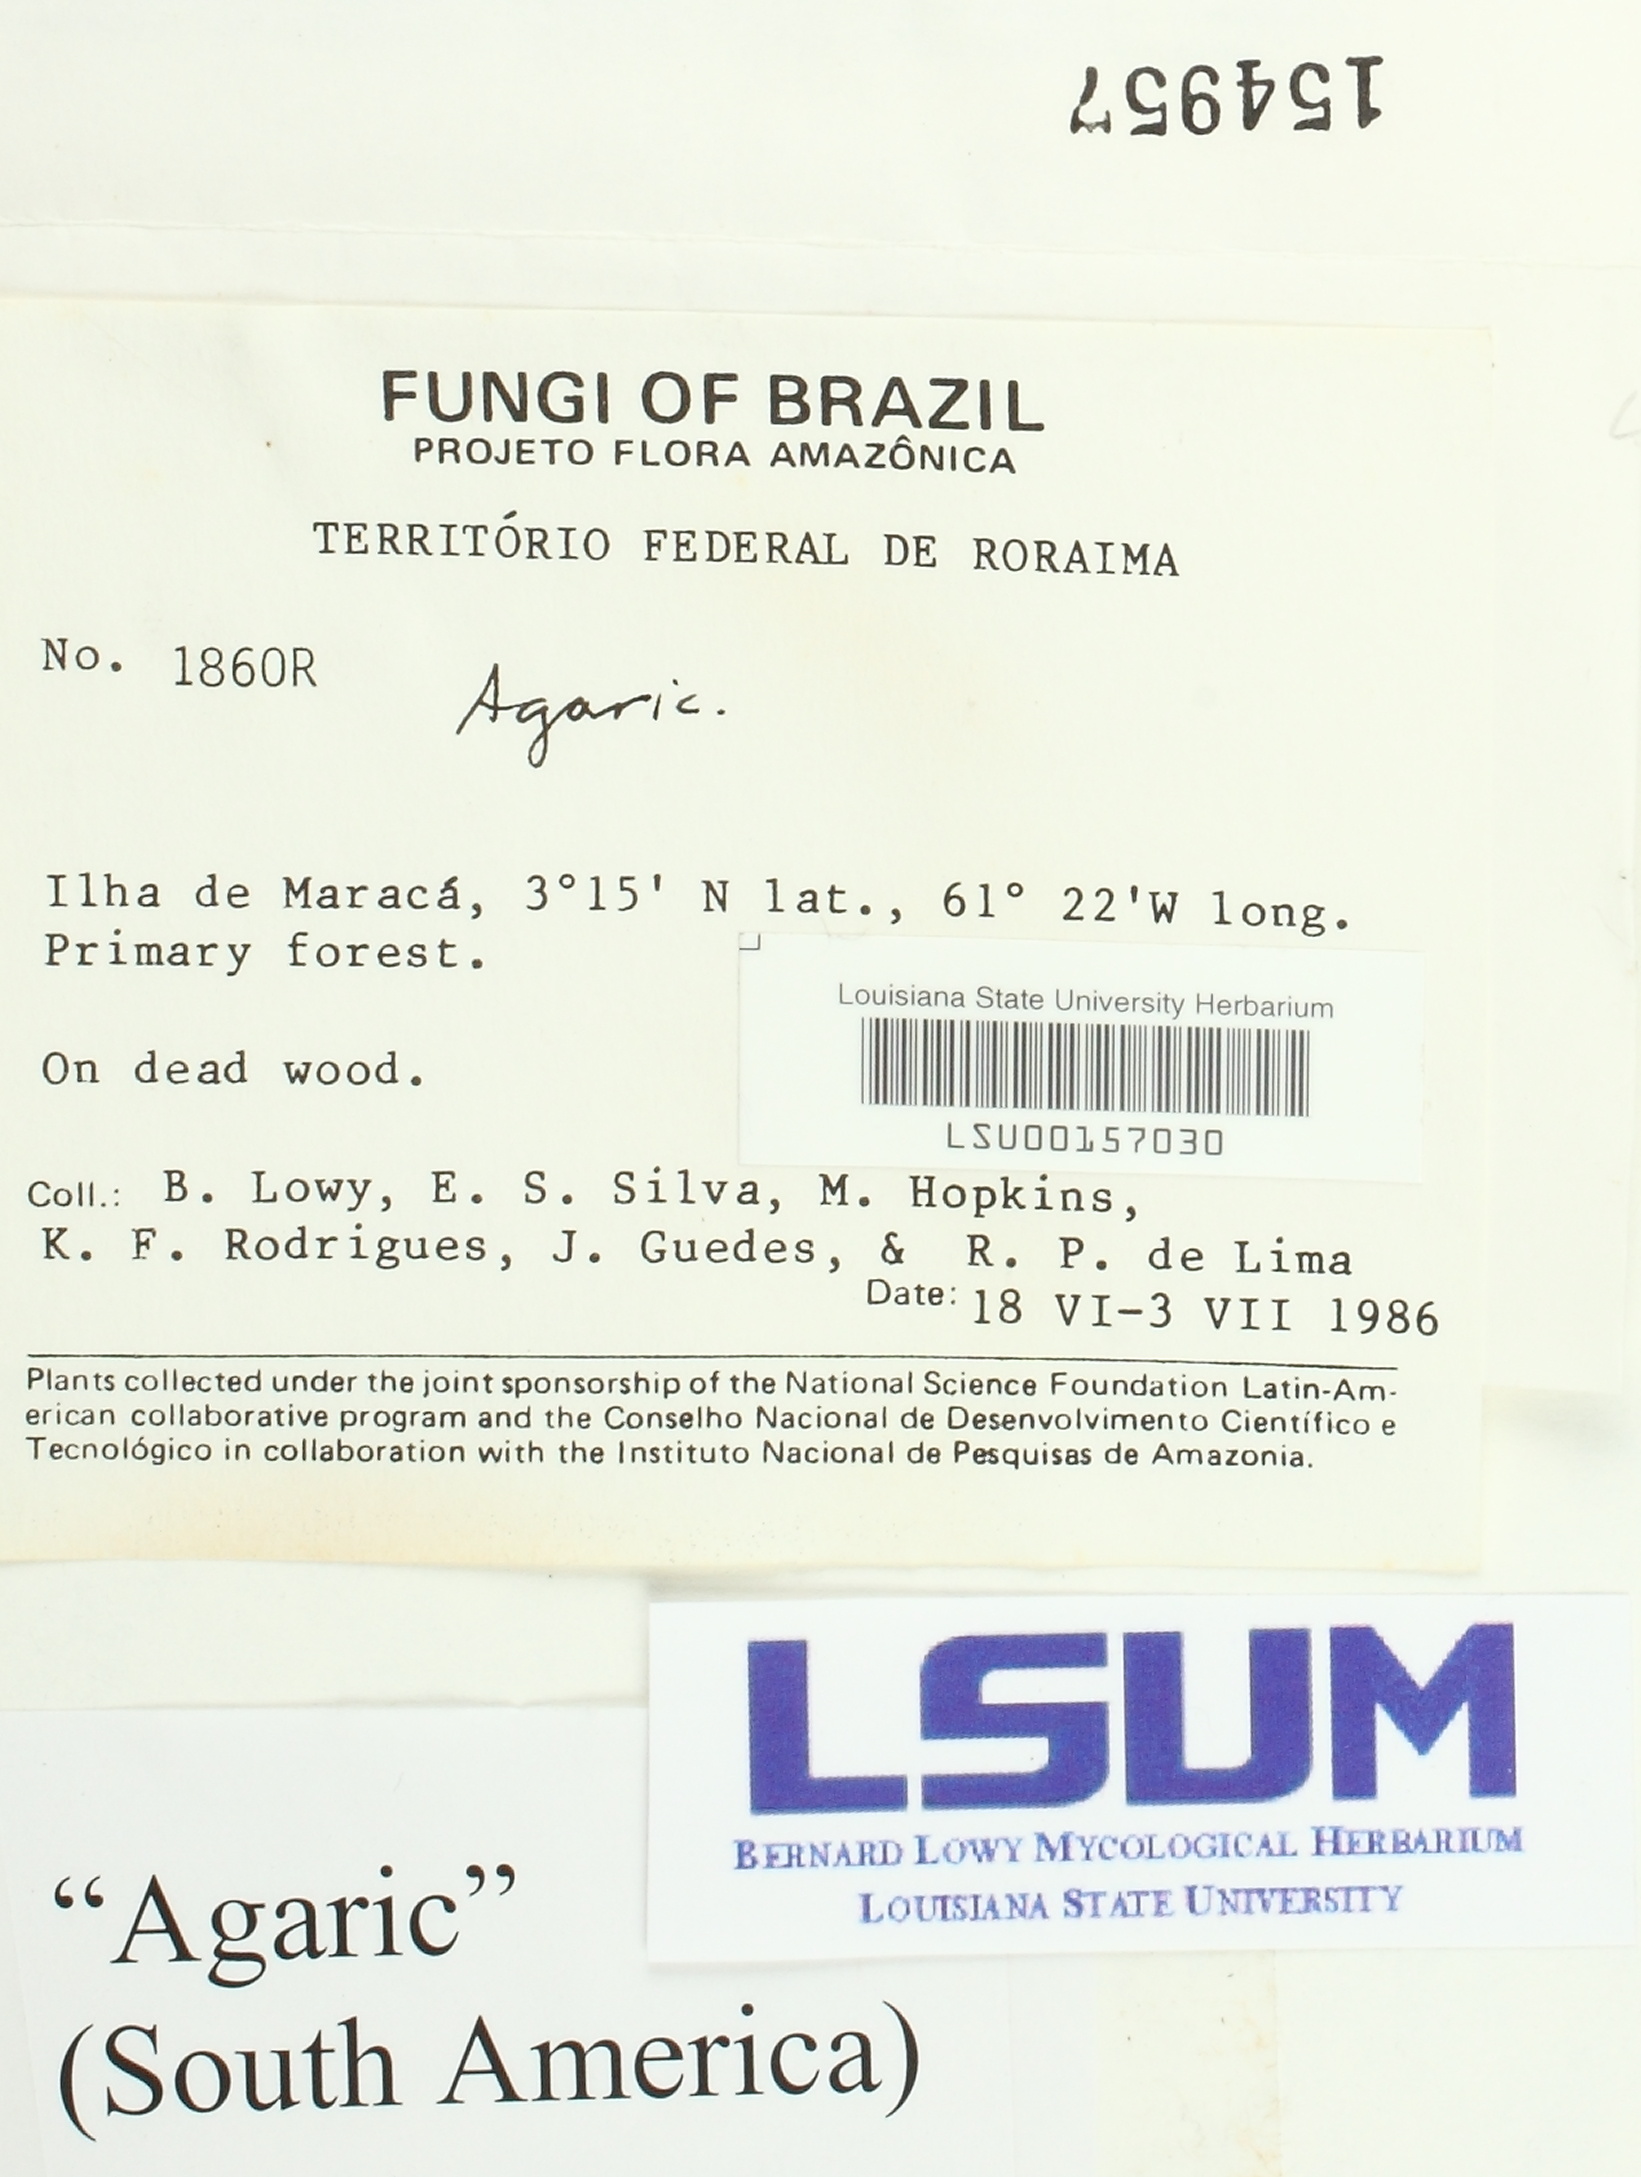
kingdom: Fungi
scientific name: Fungi
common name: Fungi
